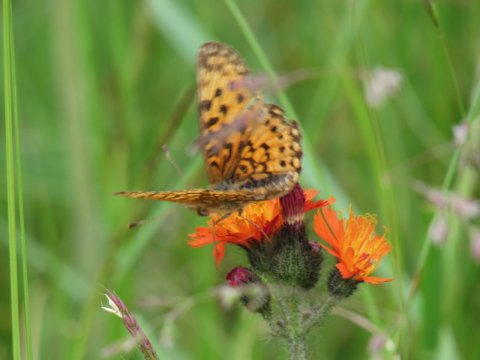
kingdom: Animalia
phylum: Arthropoda
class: Insecta
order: Lepidoptera
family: Nymphalidae
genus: Boloria
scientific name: Boloria selene
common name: Silver-bordered Fritillary
